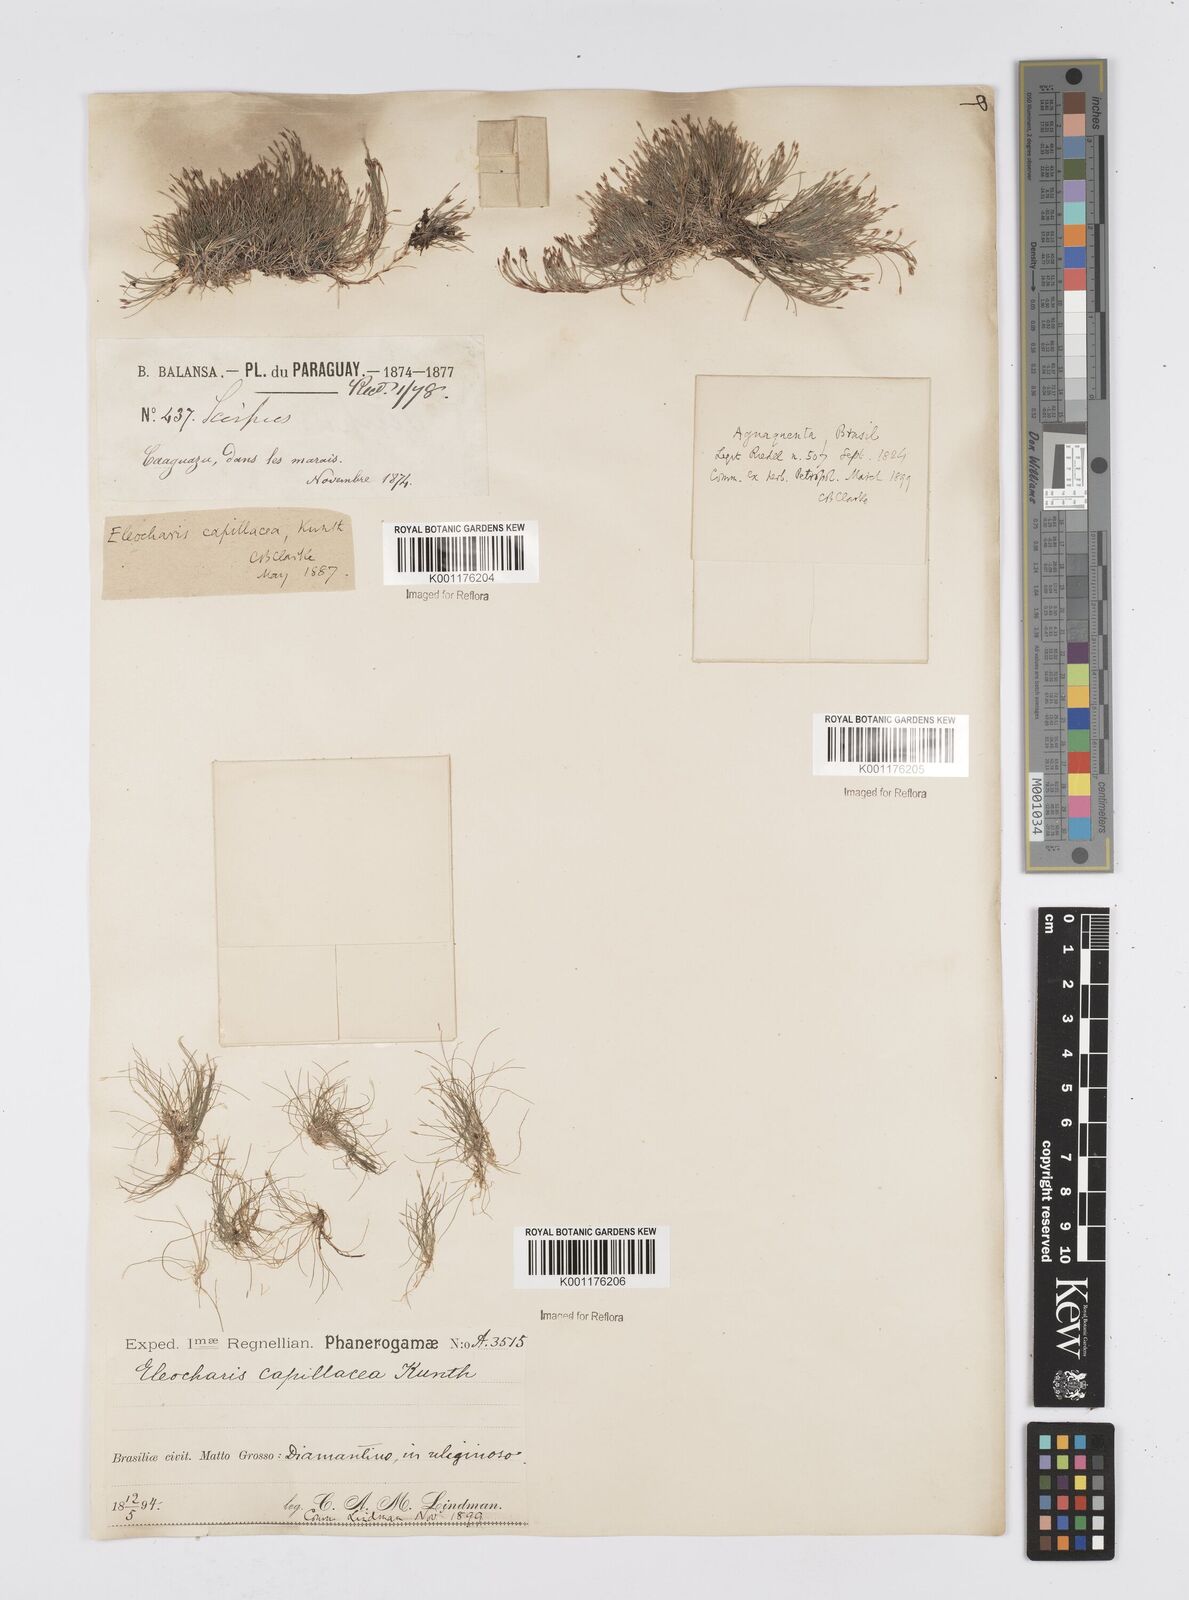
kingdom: Plantae
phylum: Tracheophyta
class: Liliopsida
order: Poales
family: Cyperaceae
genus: Eleocharis
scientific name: Eleocharis capillacea
